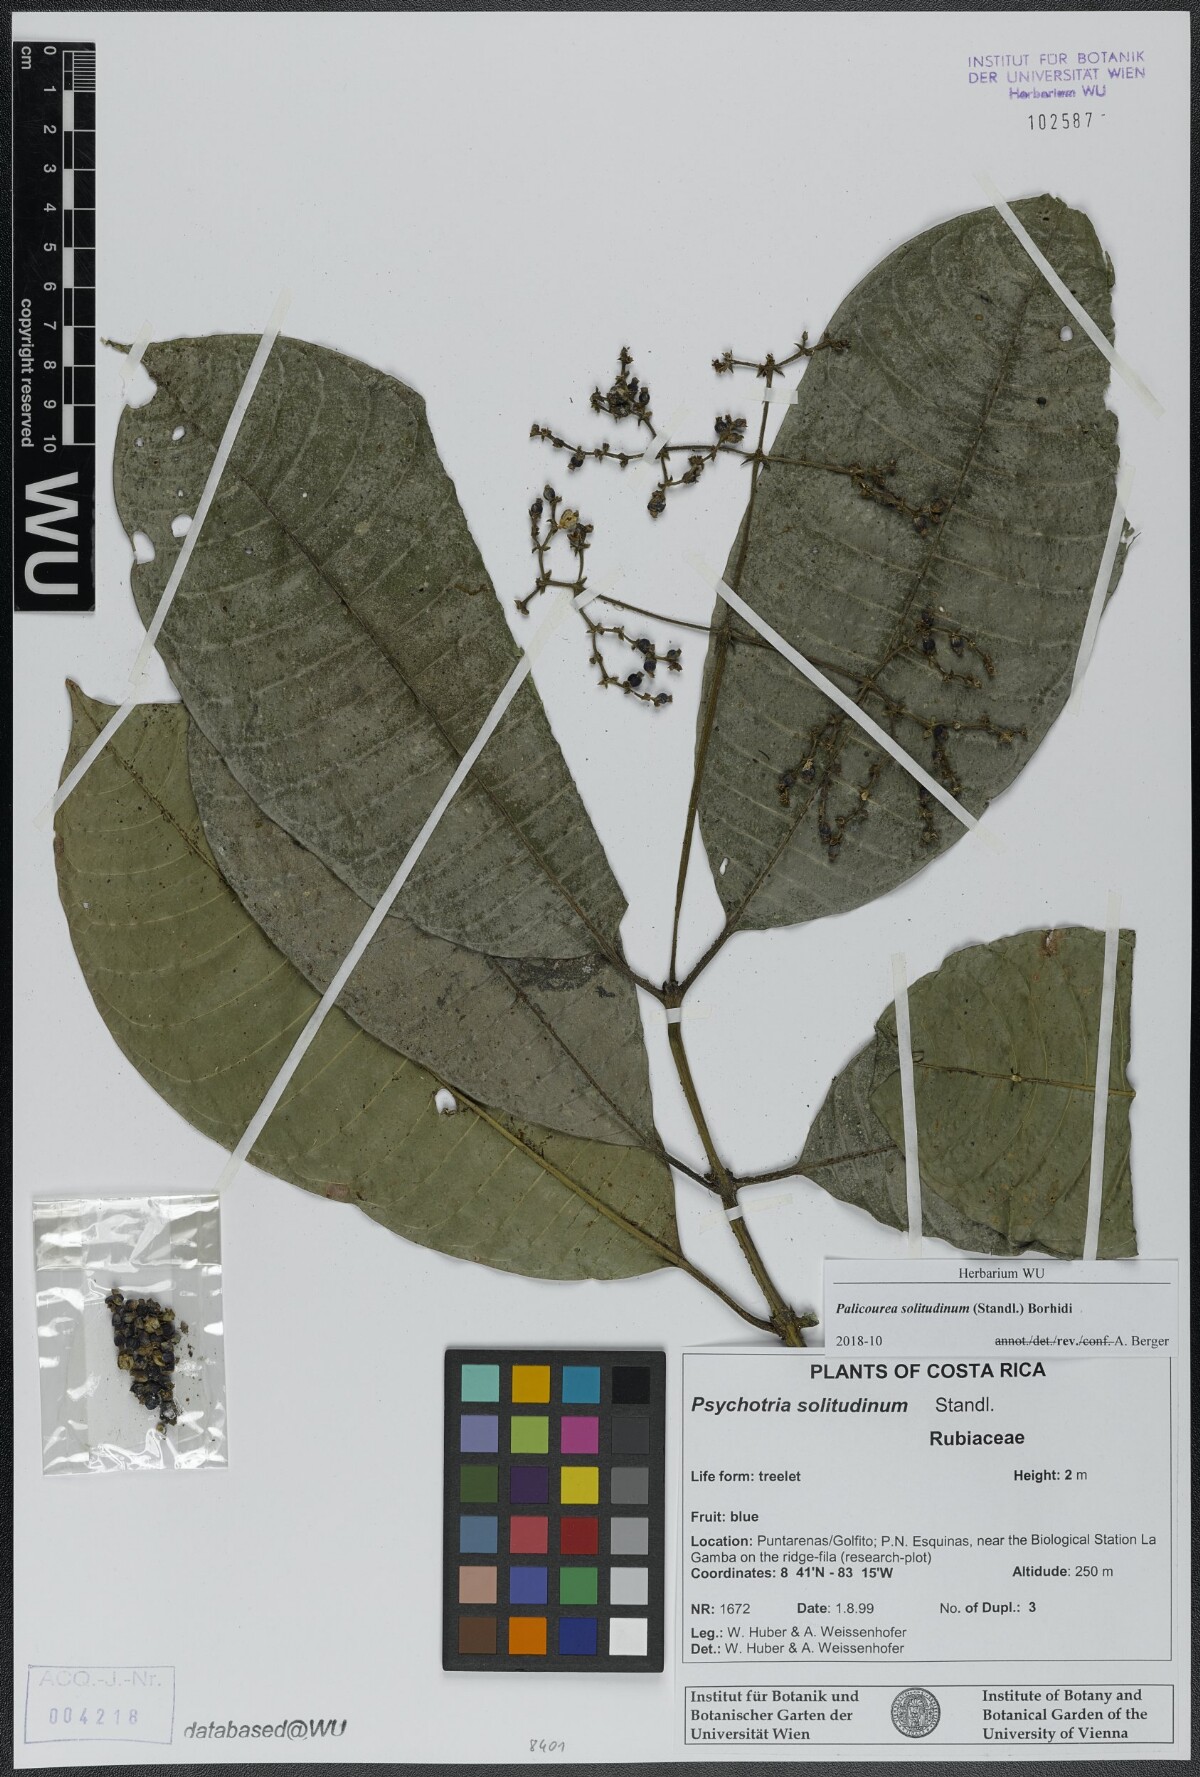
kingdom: Plantae
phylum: Tracheophyta
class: Magnoliopsida
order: Gentianales
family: Rubiaceae
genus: Palicourea
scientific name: Palicourea solitudinum
